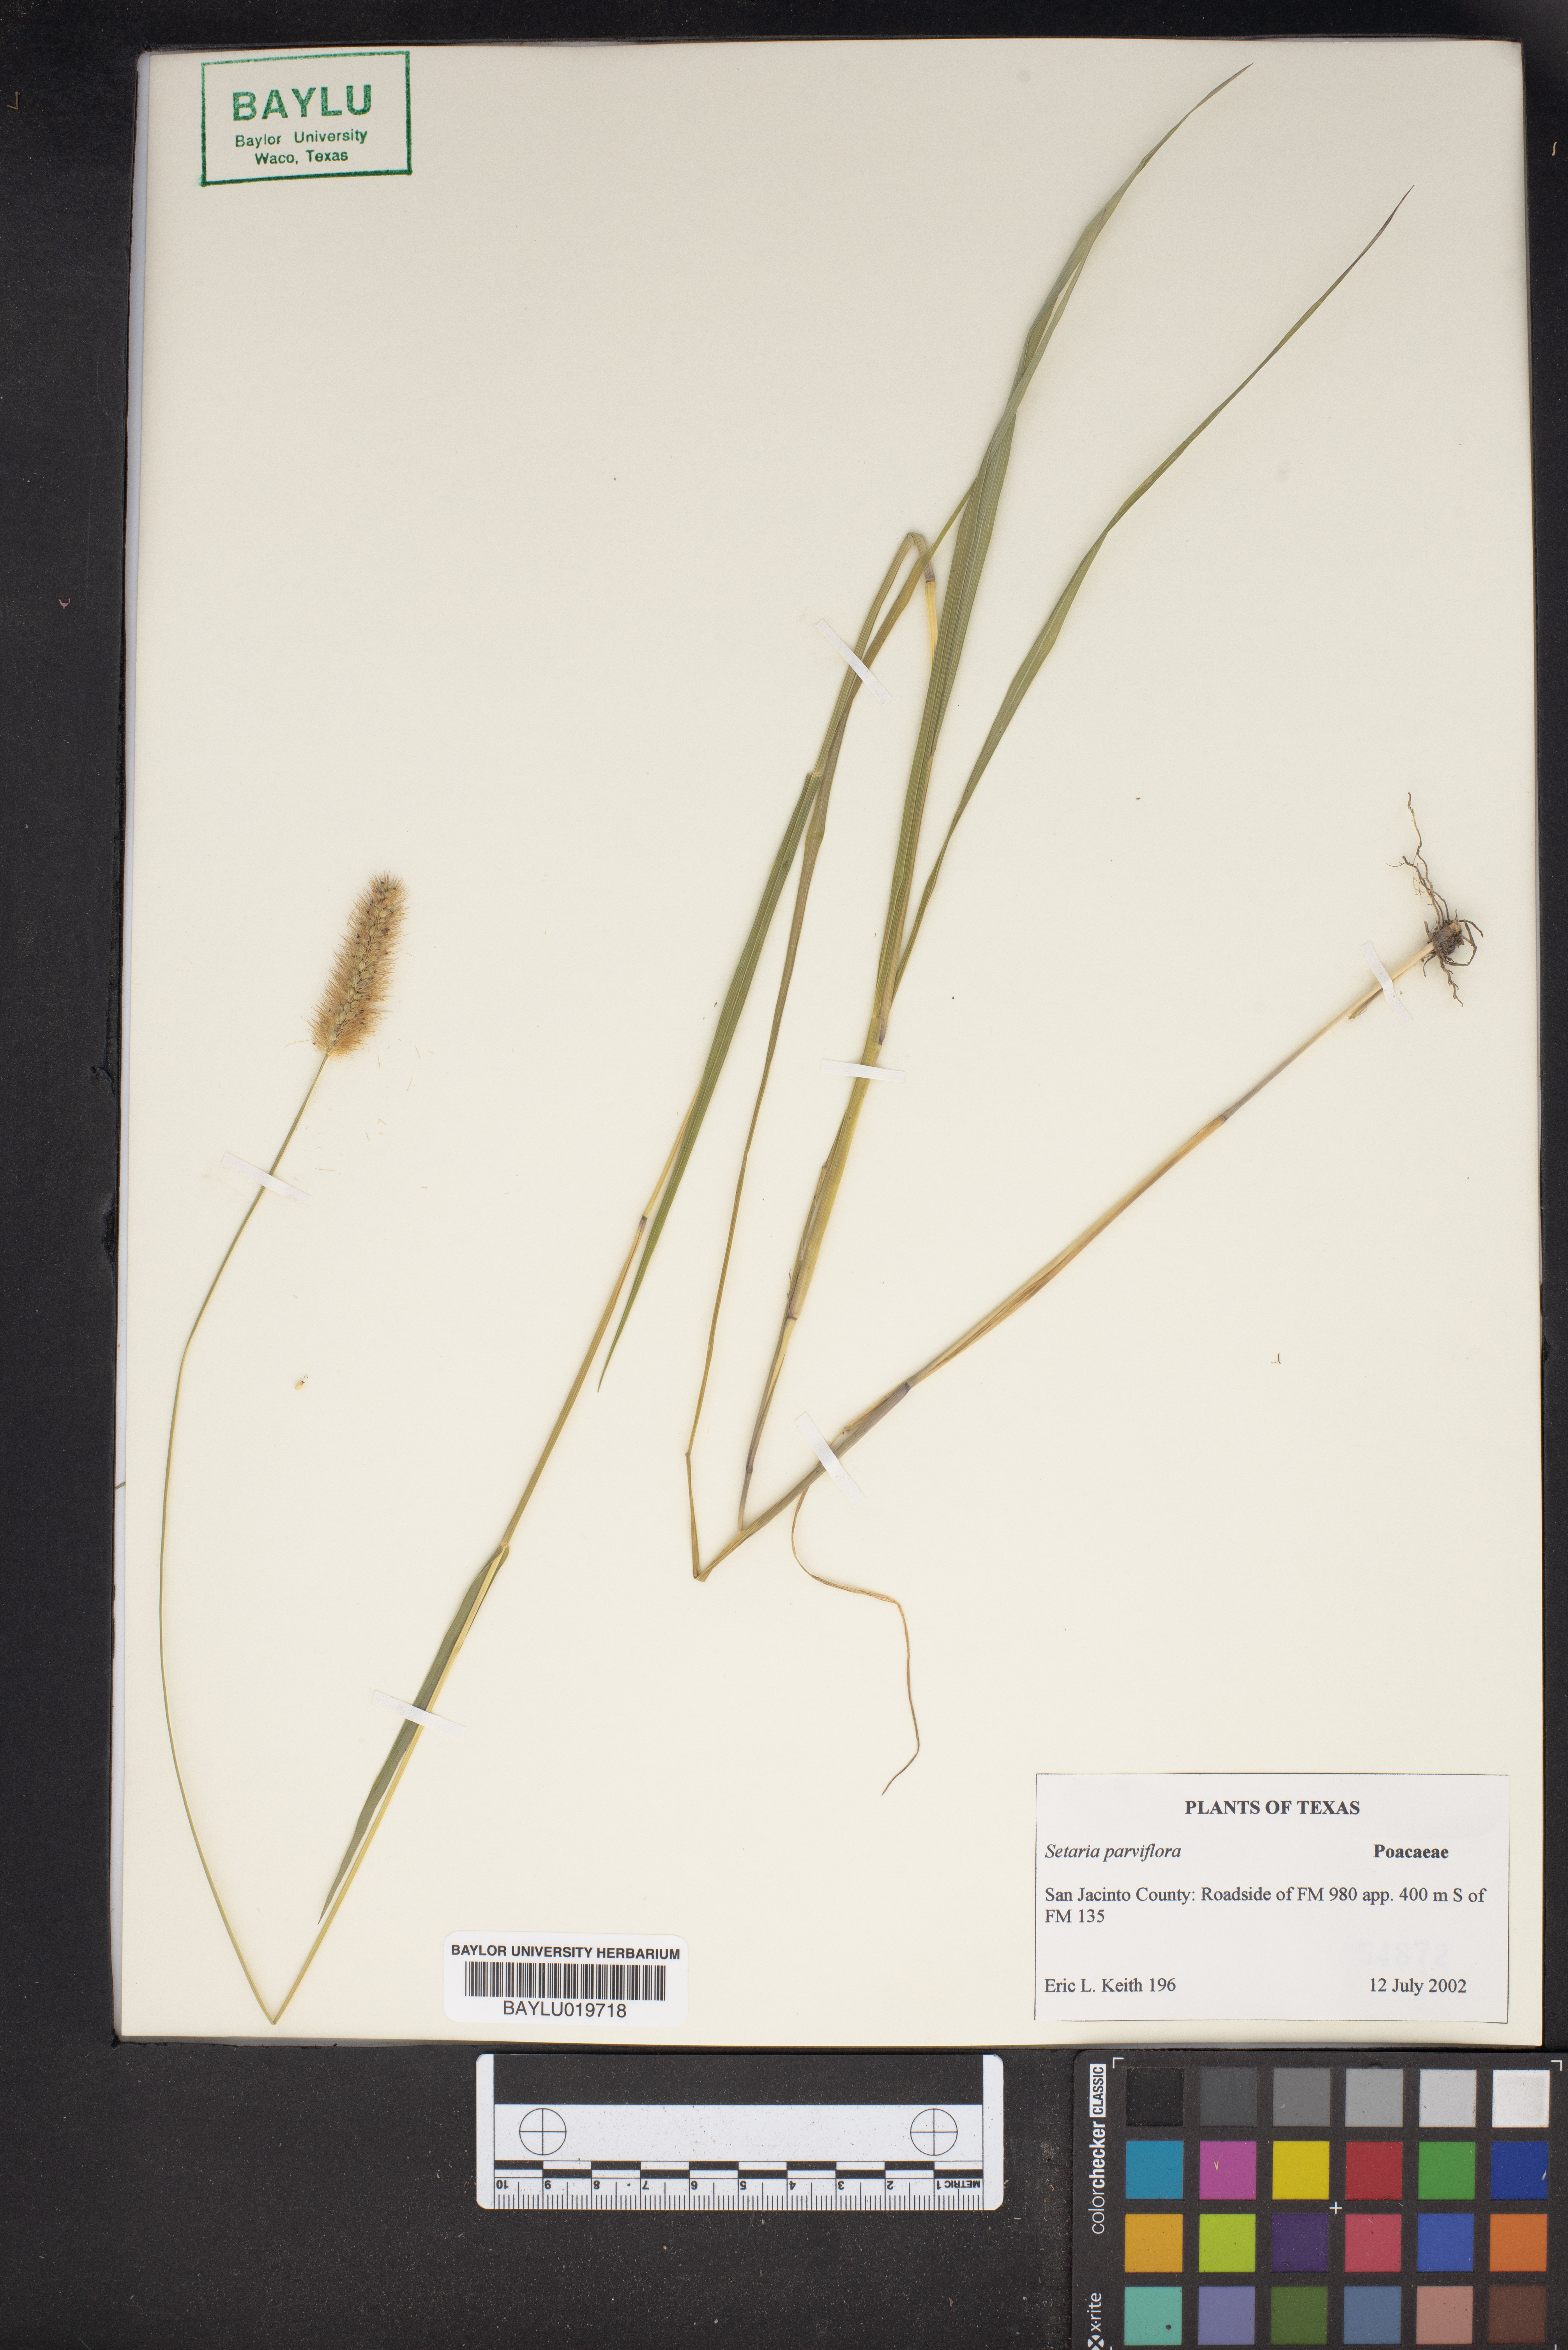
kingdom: Plantae
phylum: Tracheophyta
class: Liliopsida
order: Poales
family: Poaceae
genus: Setaria
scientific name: Setaria parviflora
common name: Knotroot bristle-grass
